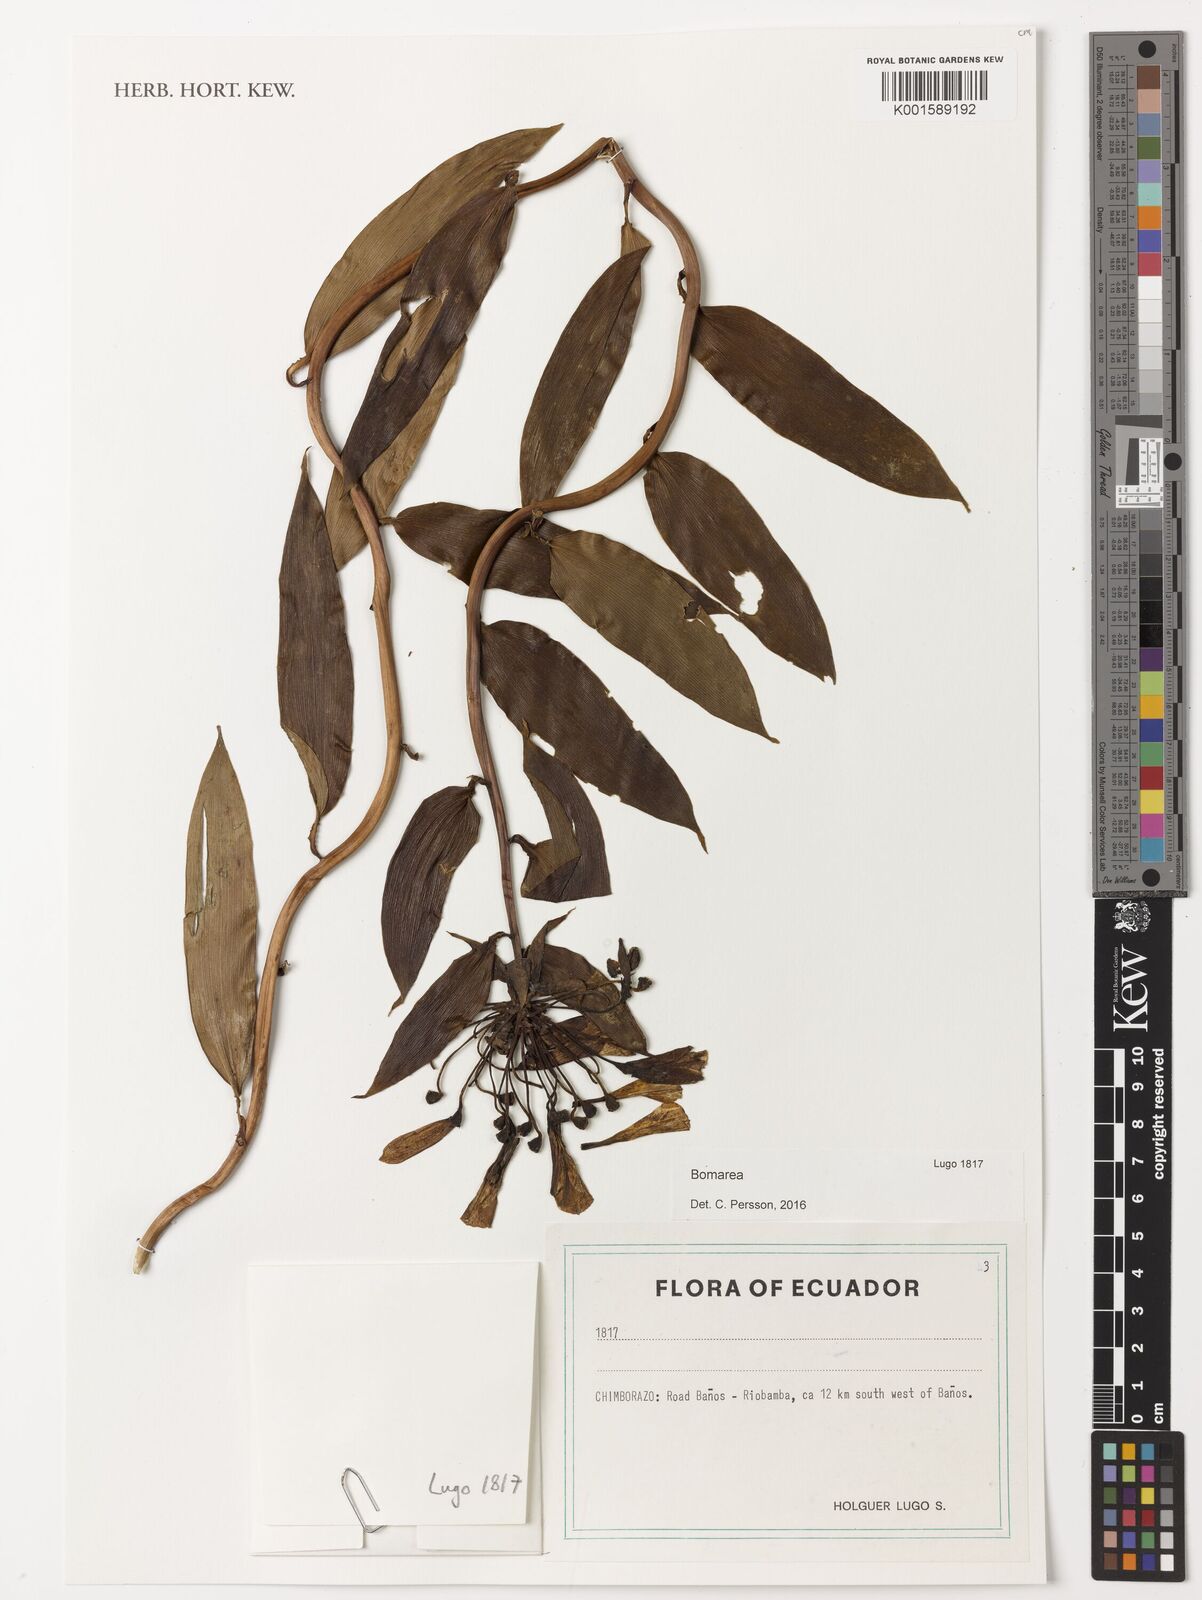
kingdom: Plantae
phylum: Tracheophyta
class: Liliopsida
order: Liliales
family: Alstroemeriaceae
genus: Bomarea
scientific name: Bomarea
